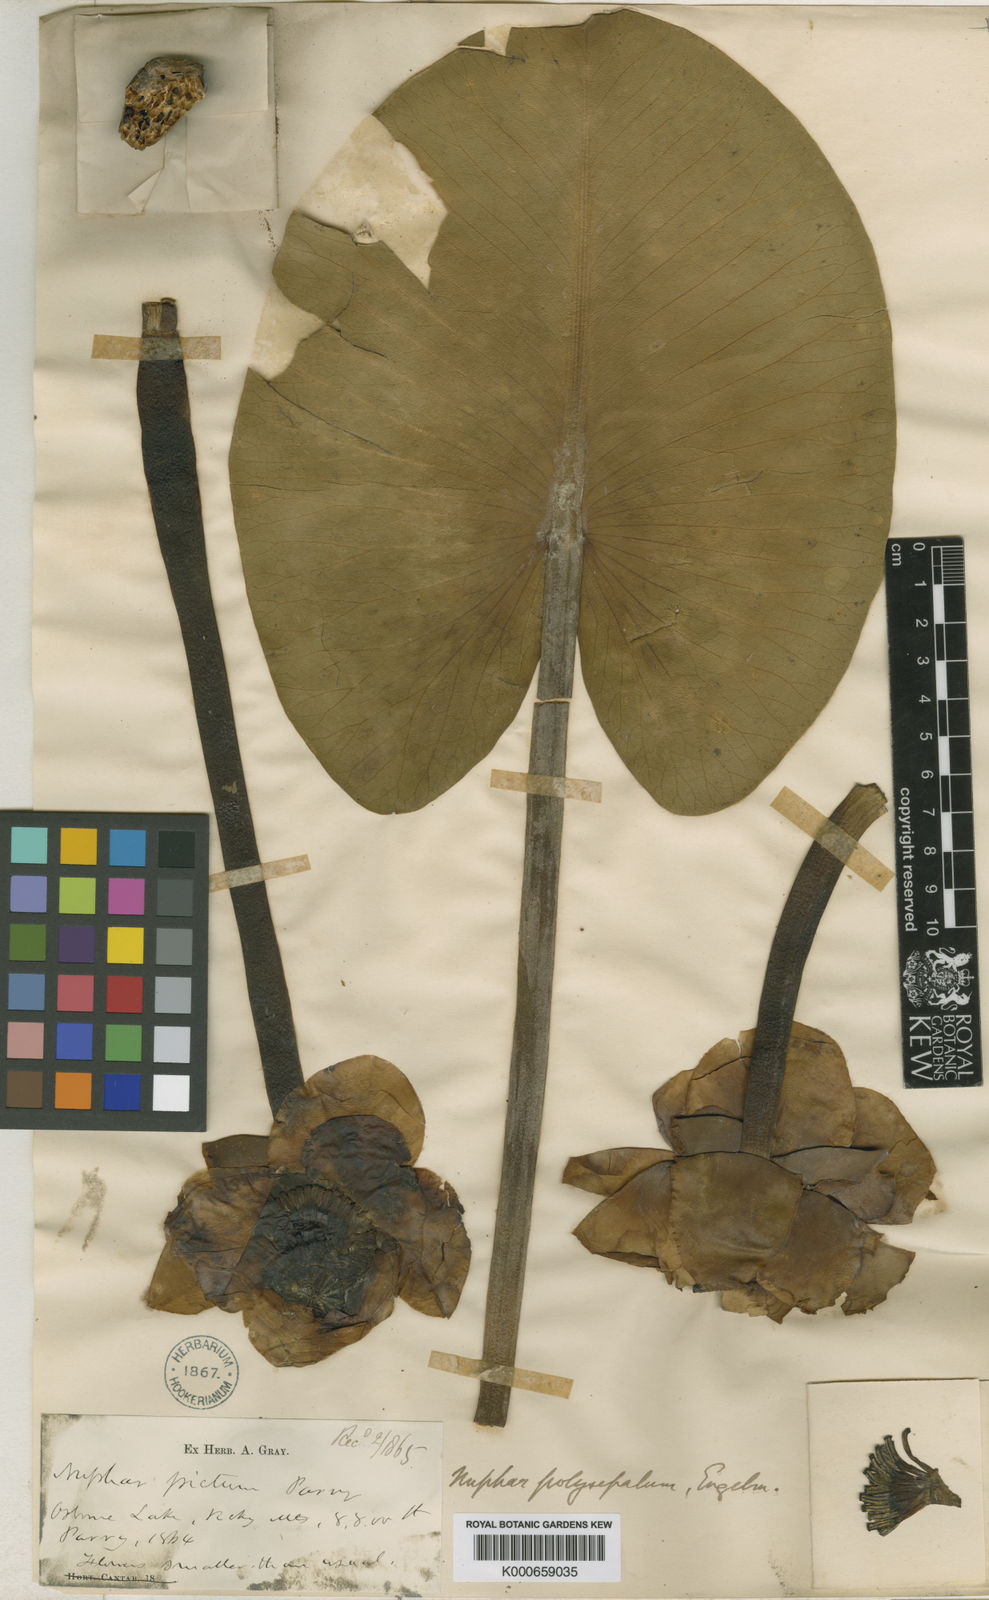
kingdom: Plantae
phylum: Tracheophyta
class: Magnoliopsida
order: Nymphaeales
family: Nymphaeaceae
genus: Nuphar
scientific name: Nuphar polysepala
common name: Rocky mountain cow-lily
